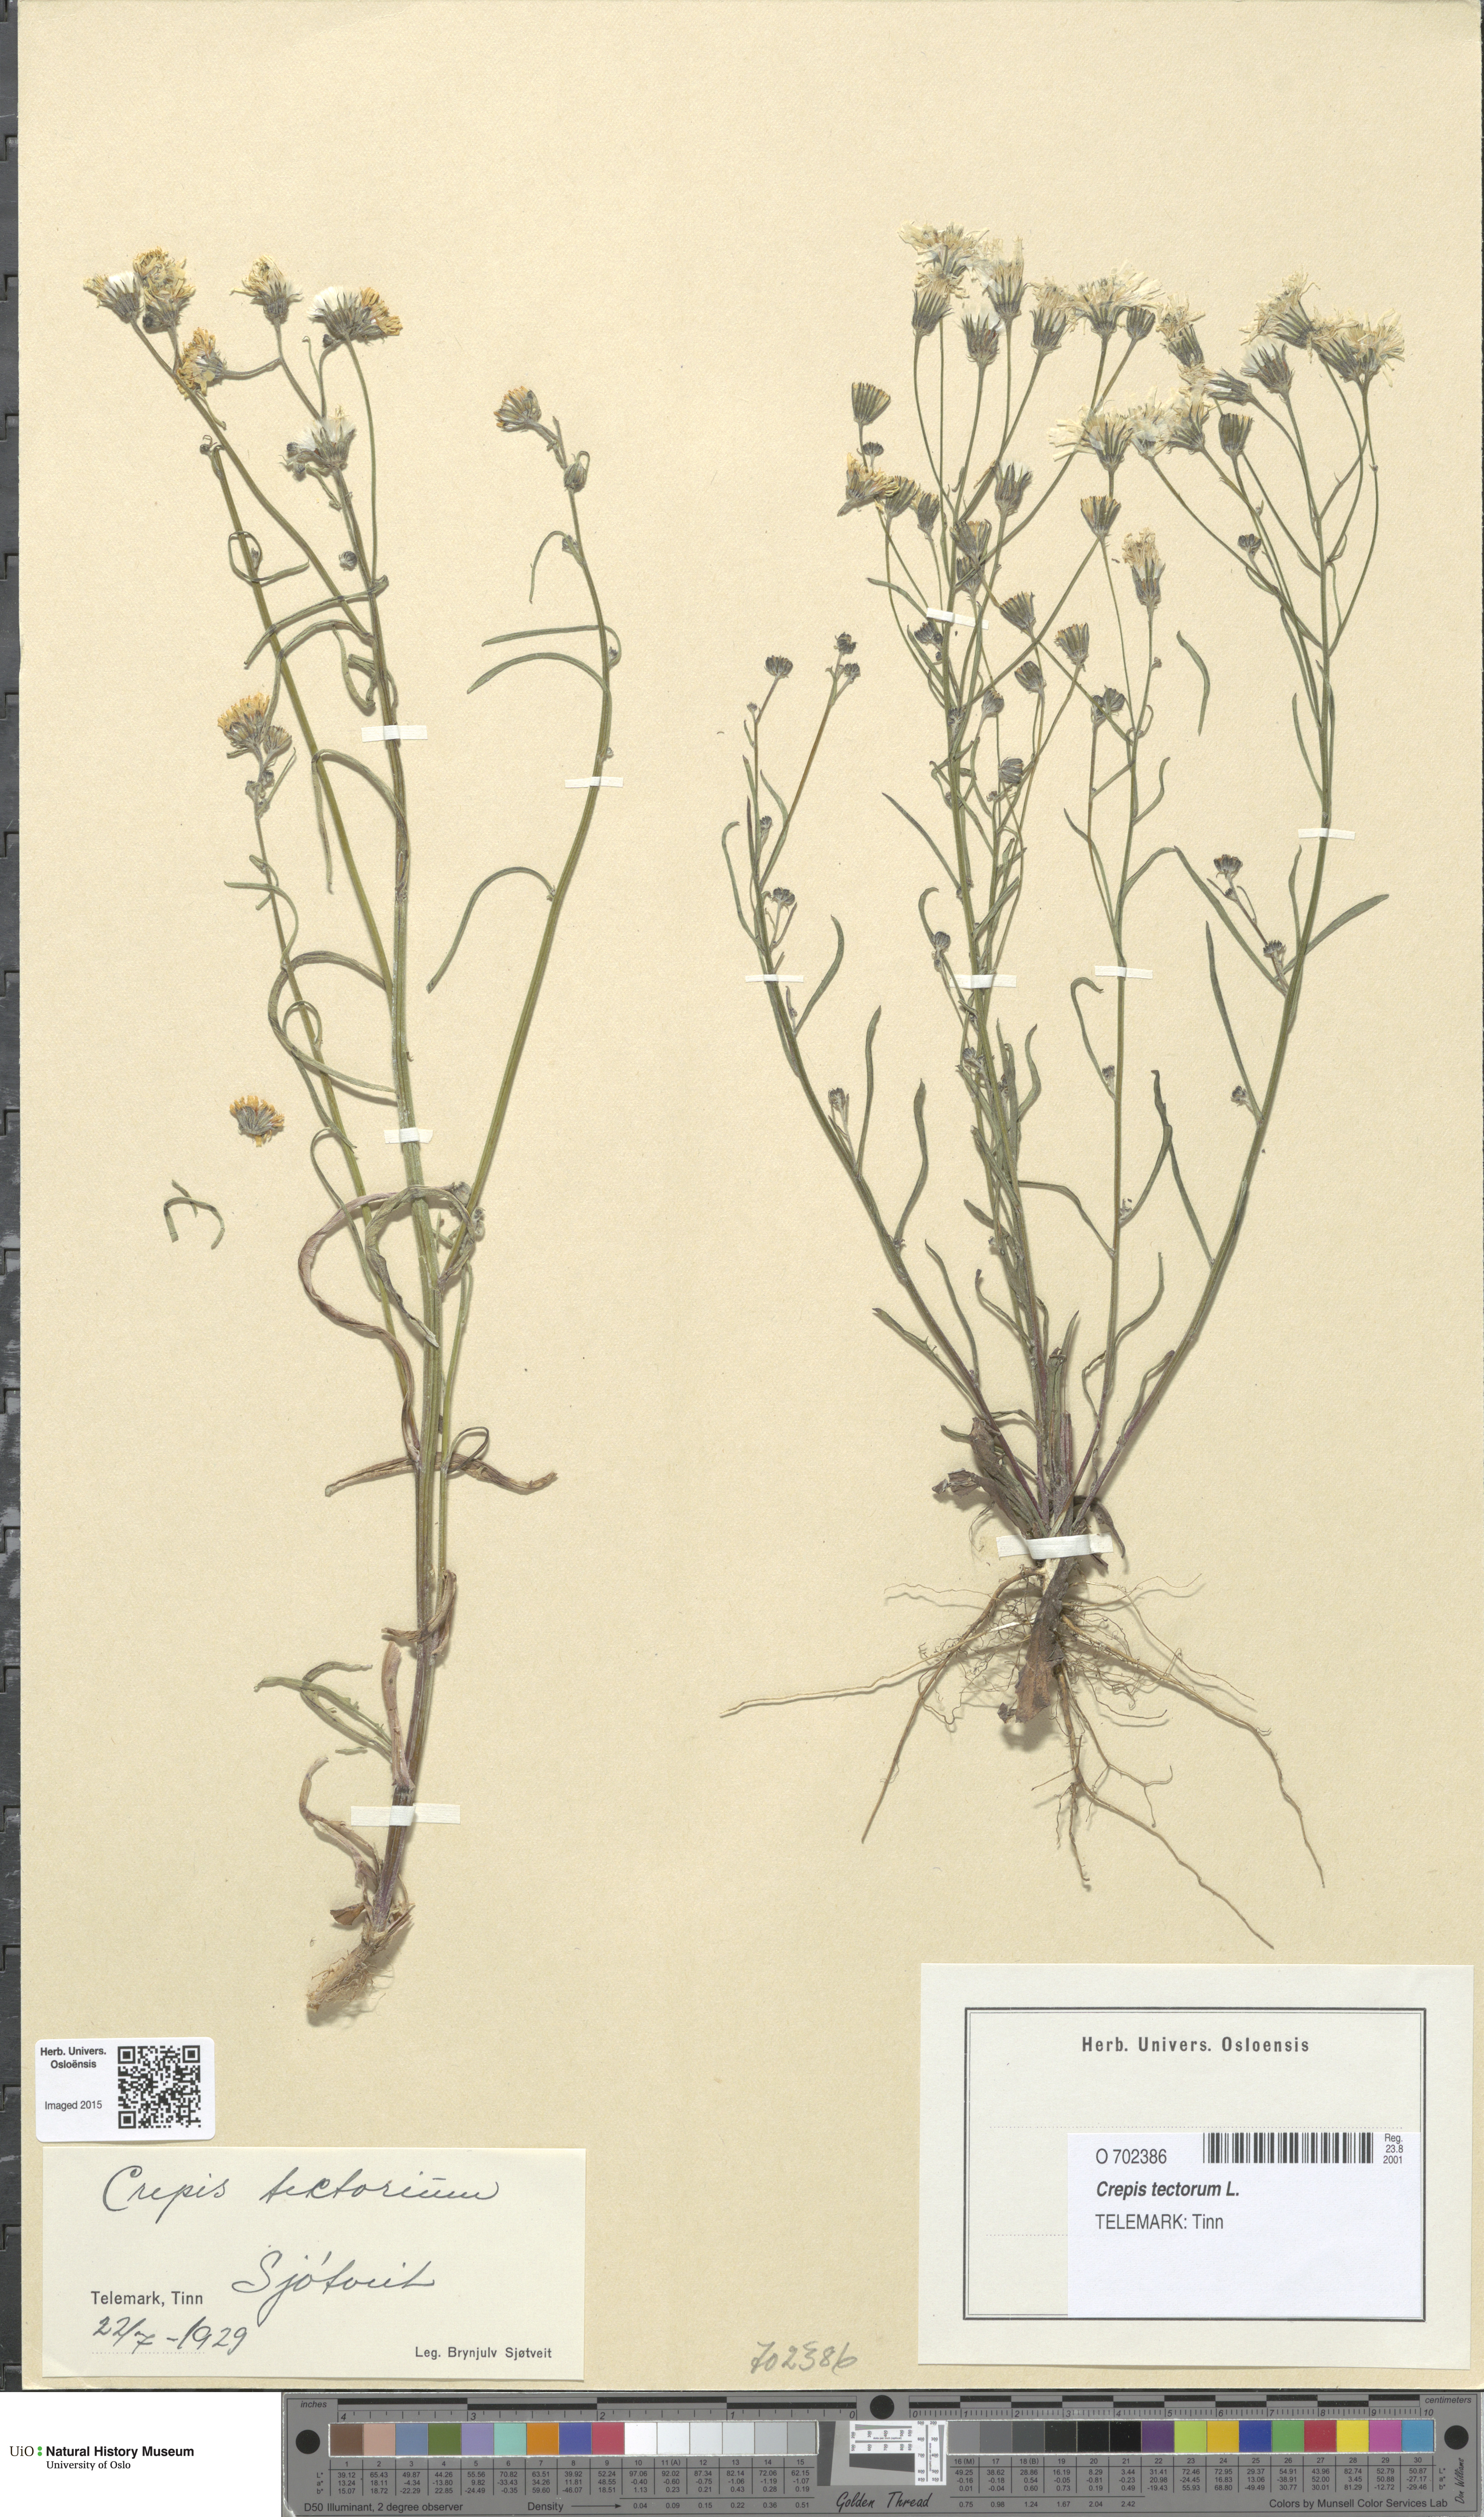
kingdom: Plantae
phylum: Tracheophyta
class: Magnoliopsida
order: Asterales
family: Asteraceae
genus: Crepis
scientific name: Crepis tectorum
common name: Narrow-leaved hawk's-beard
